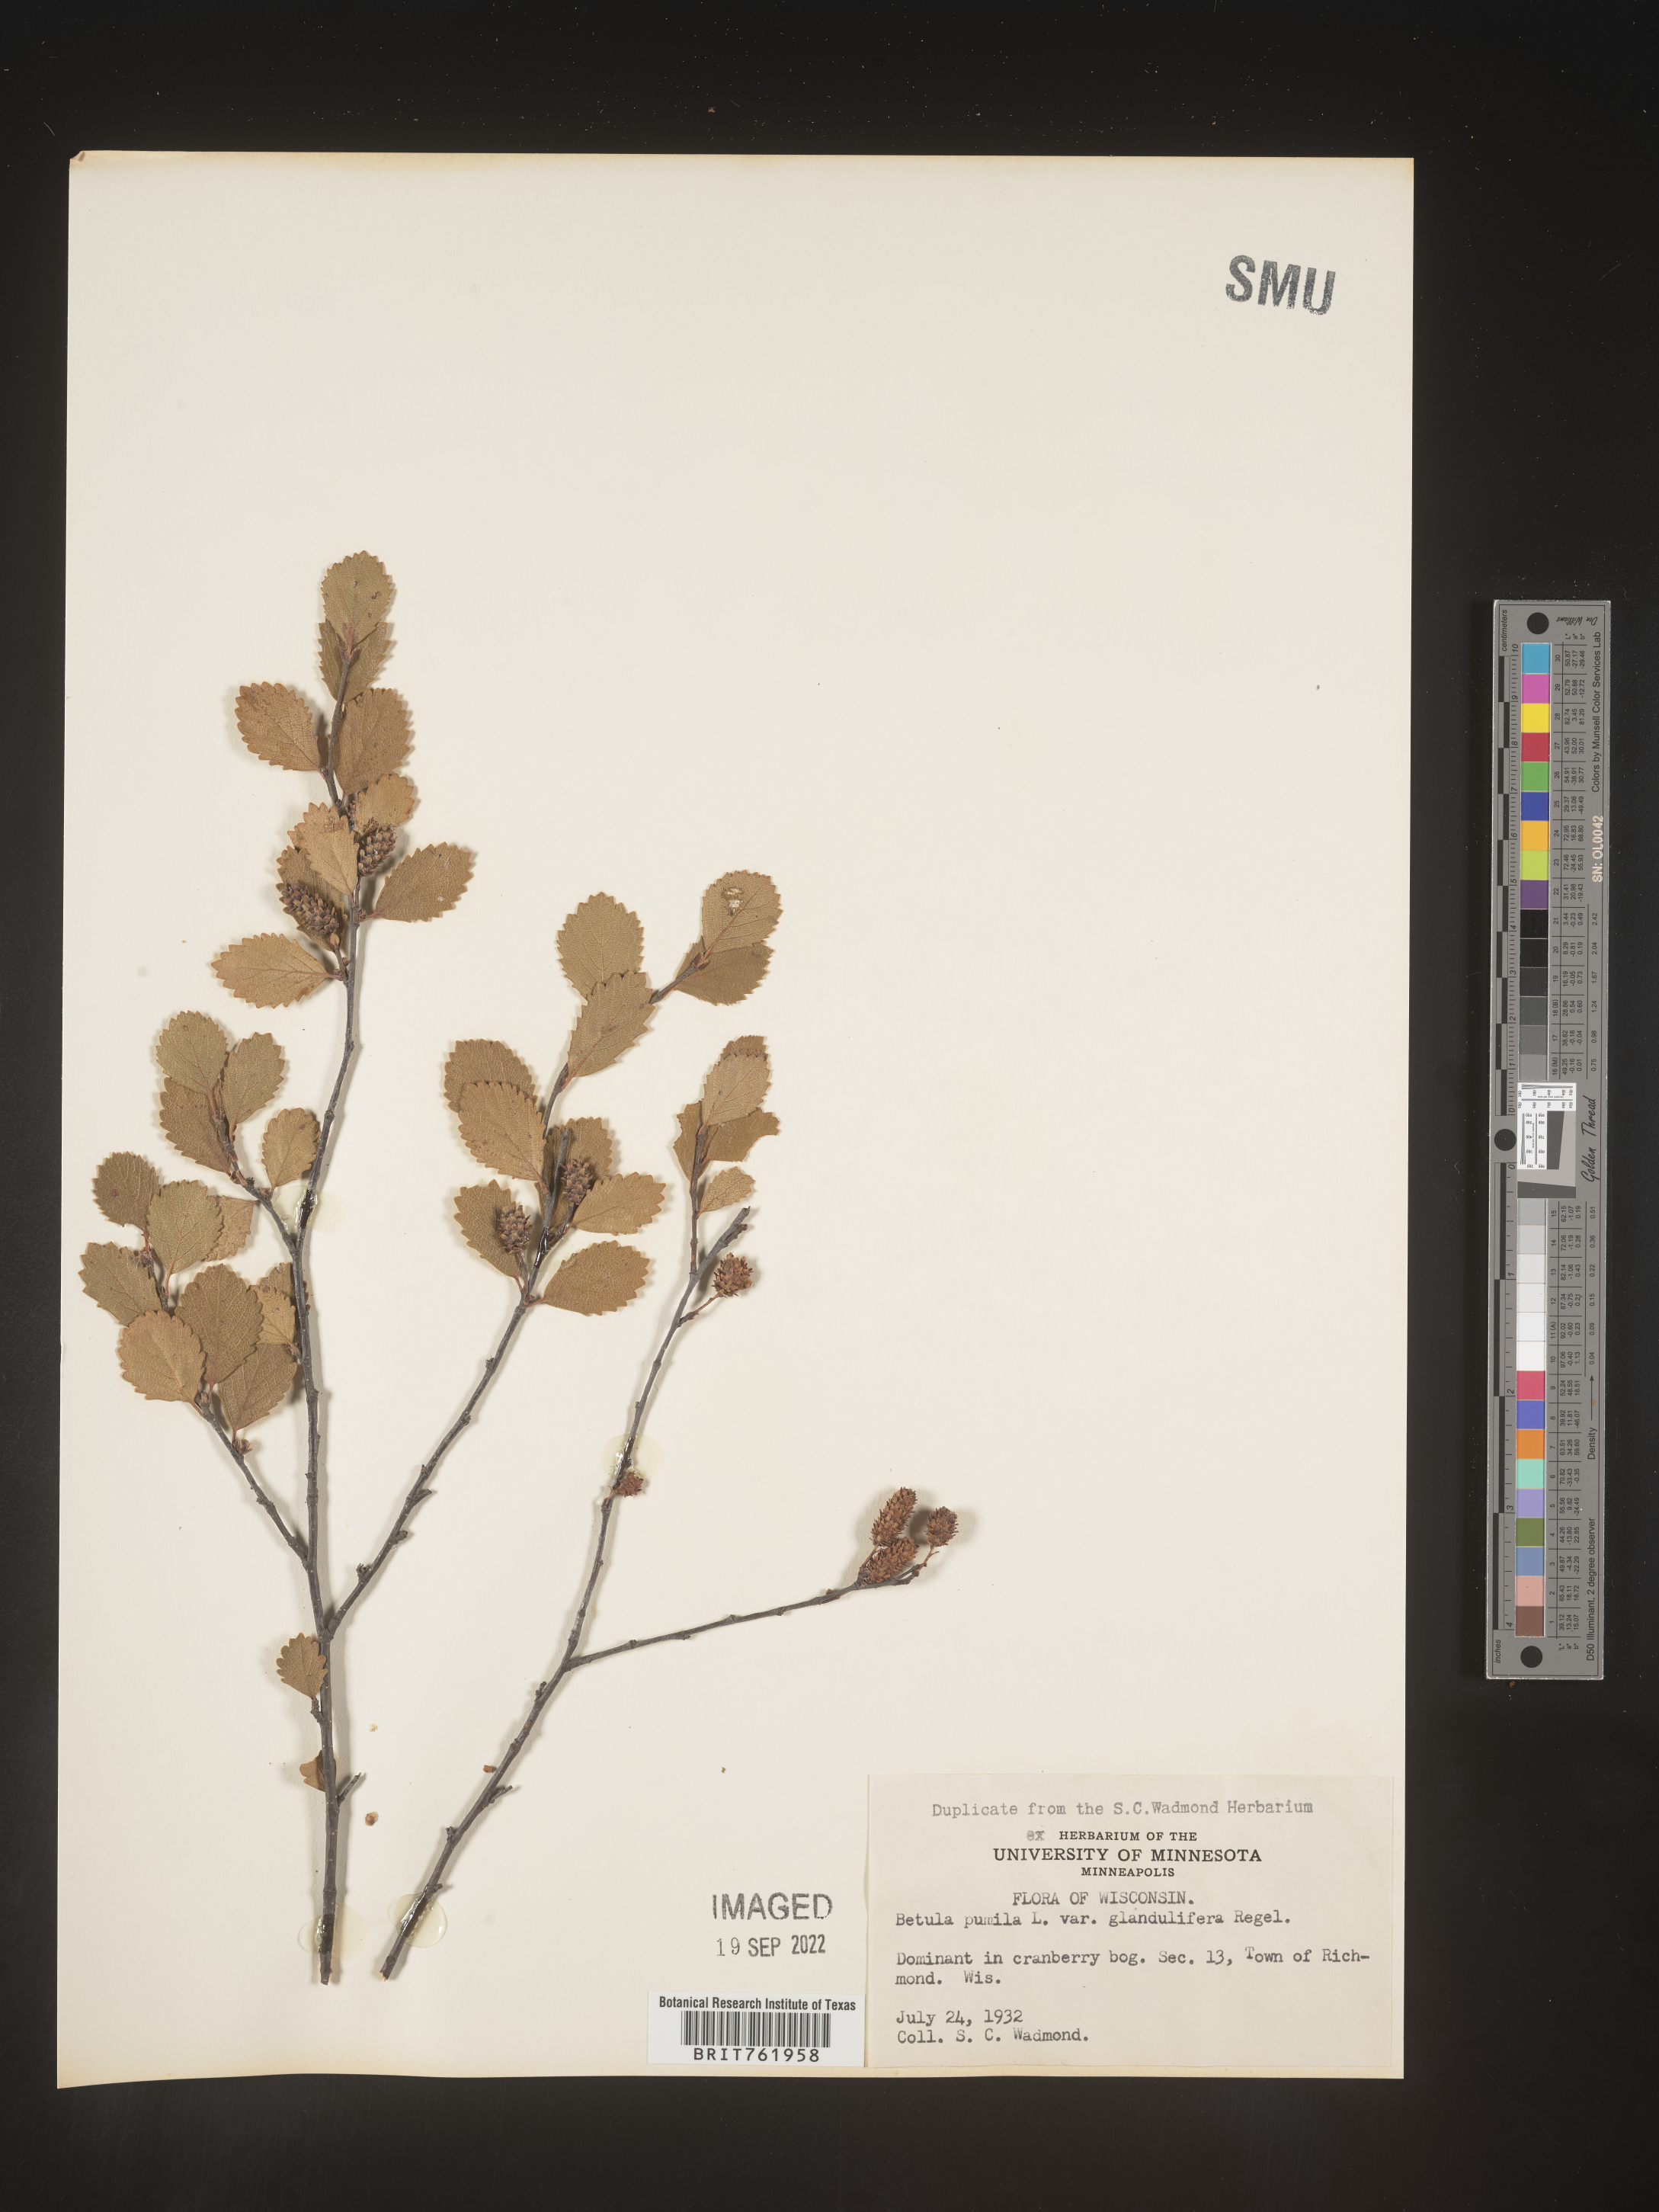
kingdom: Plantae
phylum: Tracheophyta
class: Magnoliopsida
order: Fagales
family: Betulaceae
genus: Betula
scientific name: Betula pumila
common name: Bog birch
